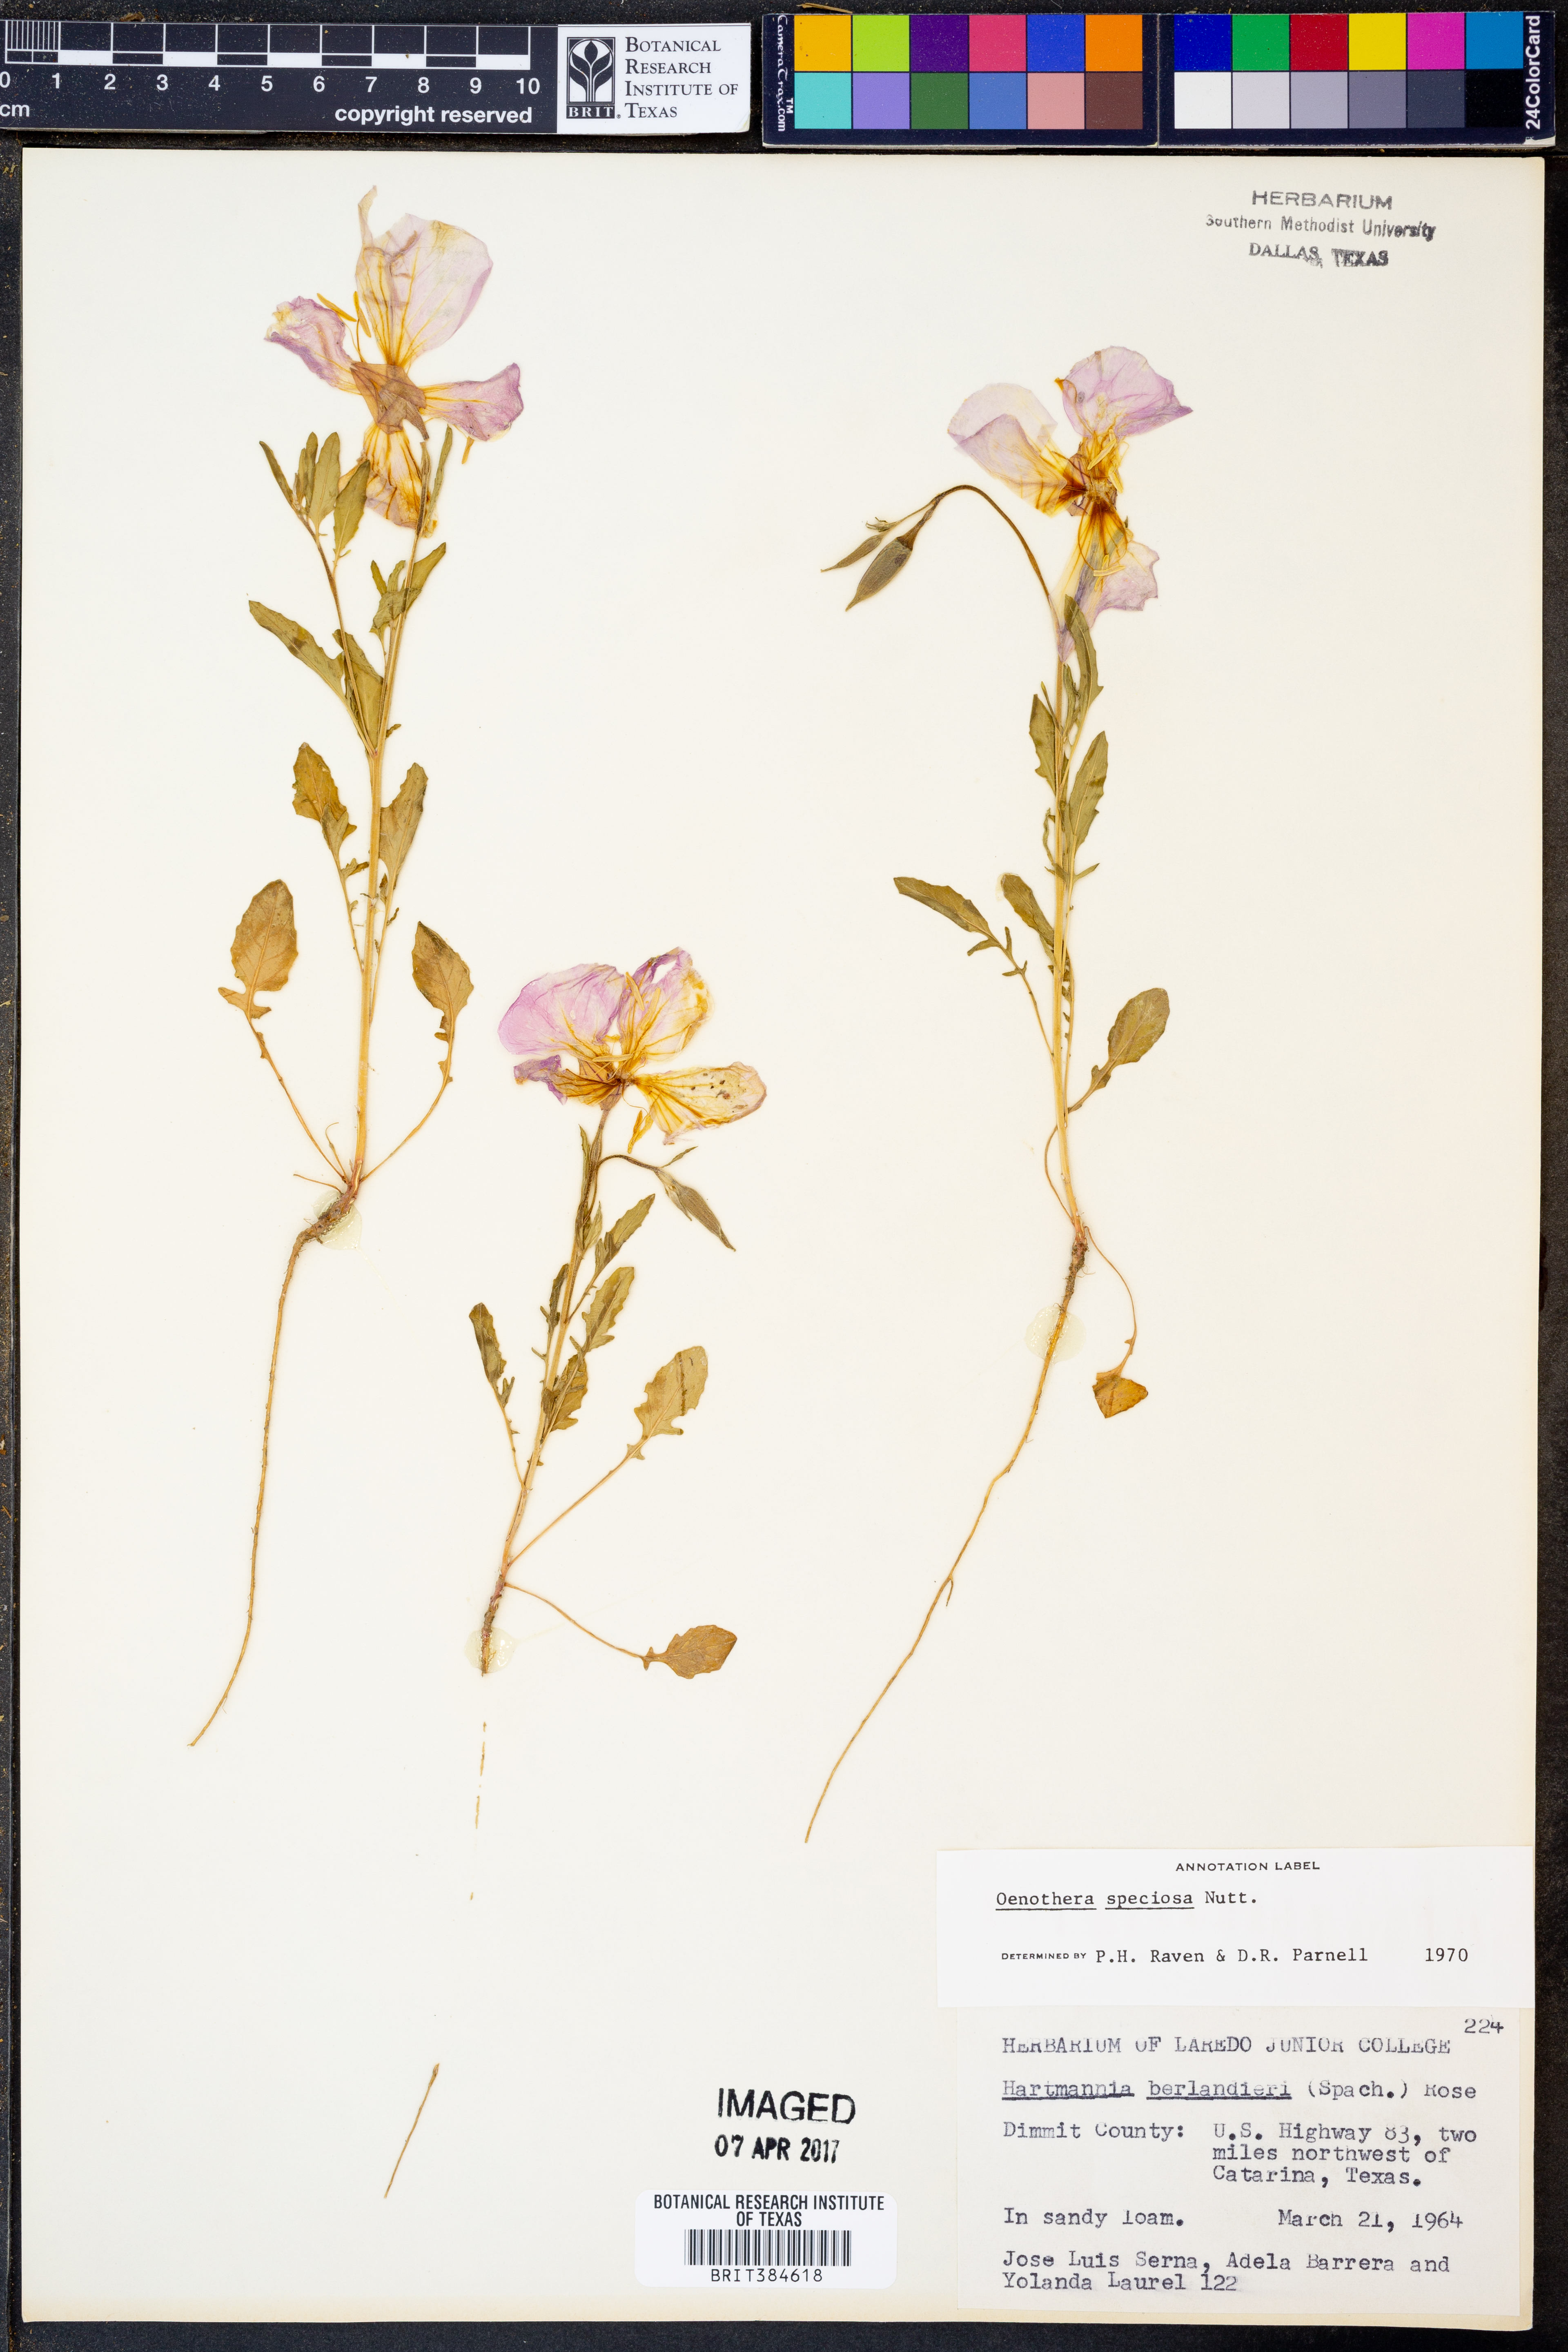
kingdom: Plantae
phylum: Tracheophyta
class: Magnoliopsida
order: Myrtales
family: Onagraceae
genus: Oenothera
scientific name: Oenothera speciosa
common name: White evening-primrose
